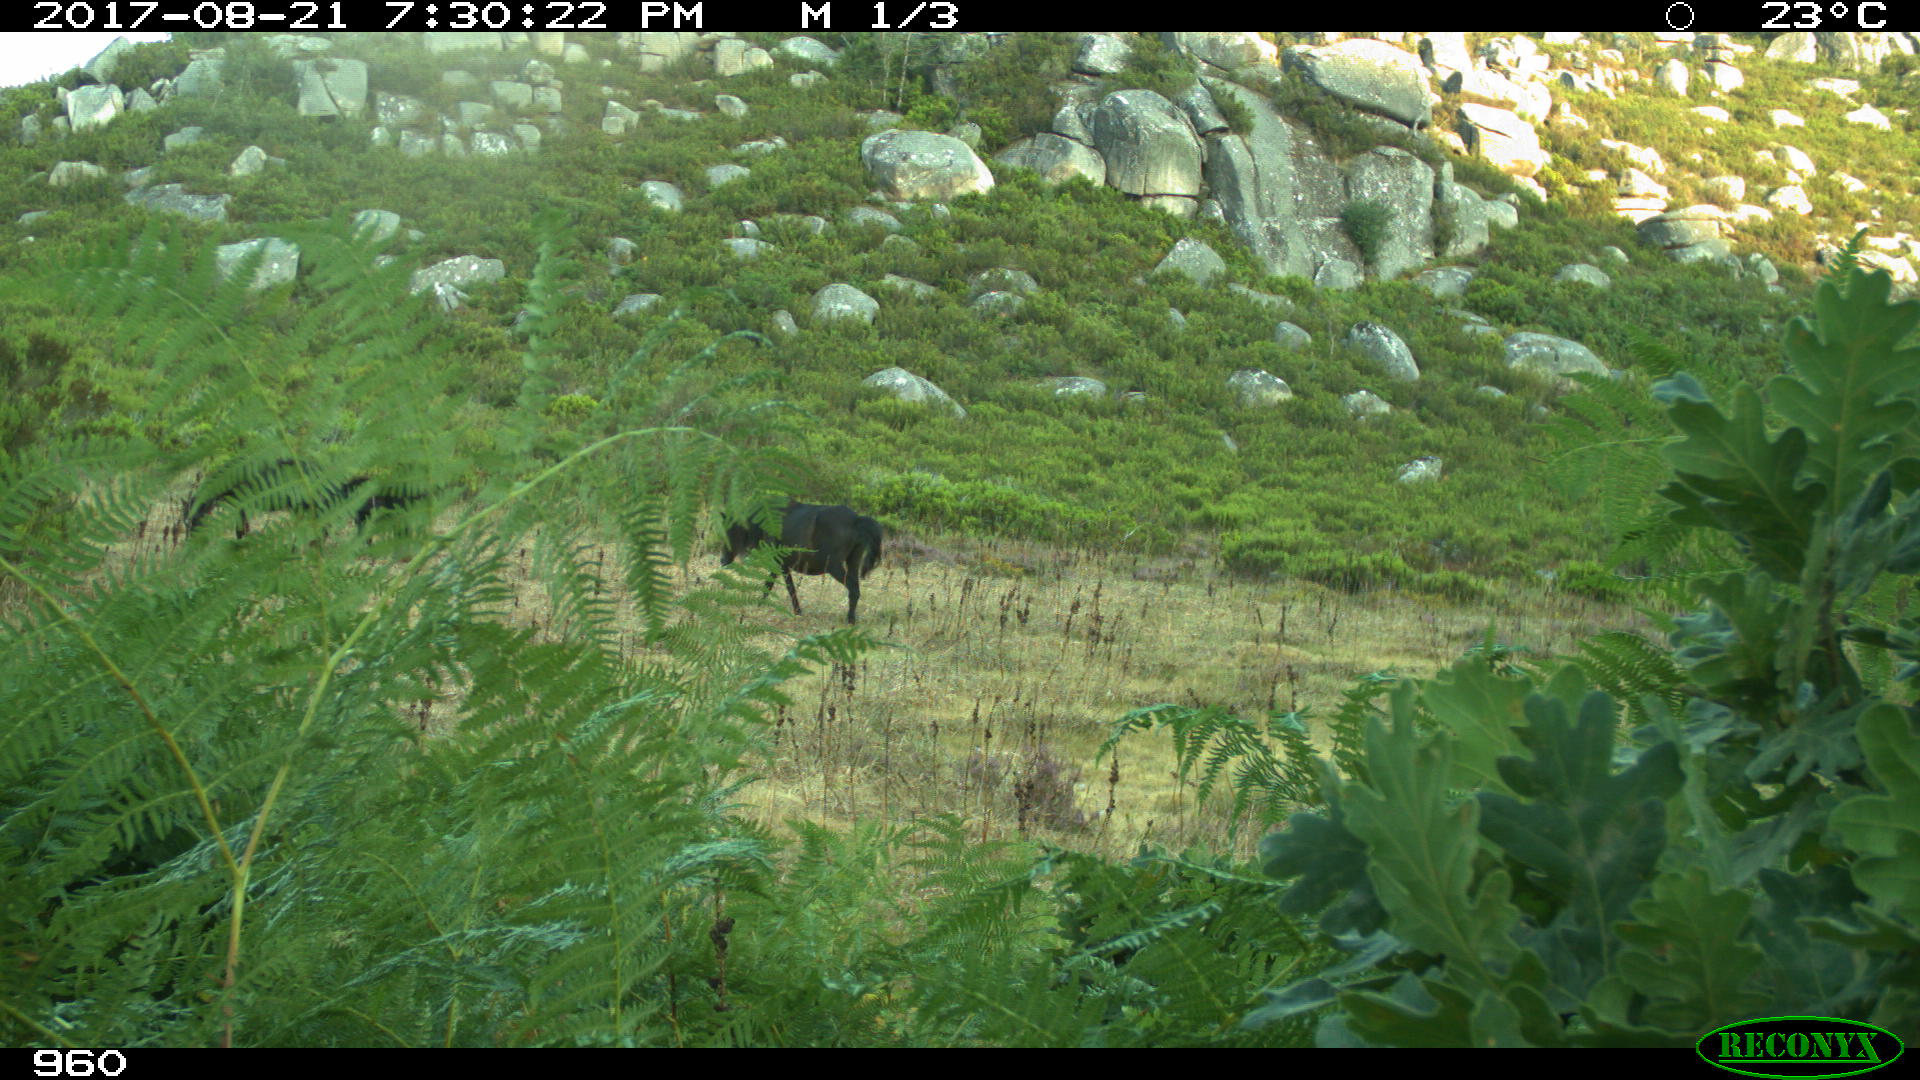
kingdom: Animalia
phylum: Chordata
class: Mammalia
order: Perissodactyla
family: Equidae
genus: Equus
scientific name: Equus caballus
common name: Horse
